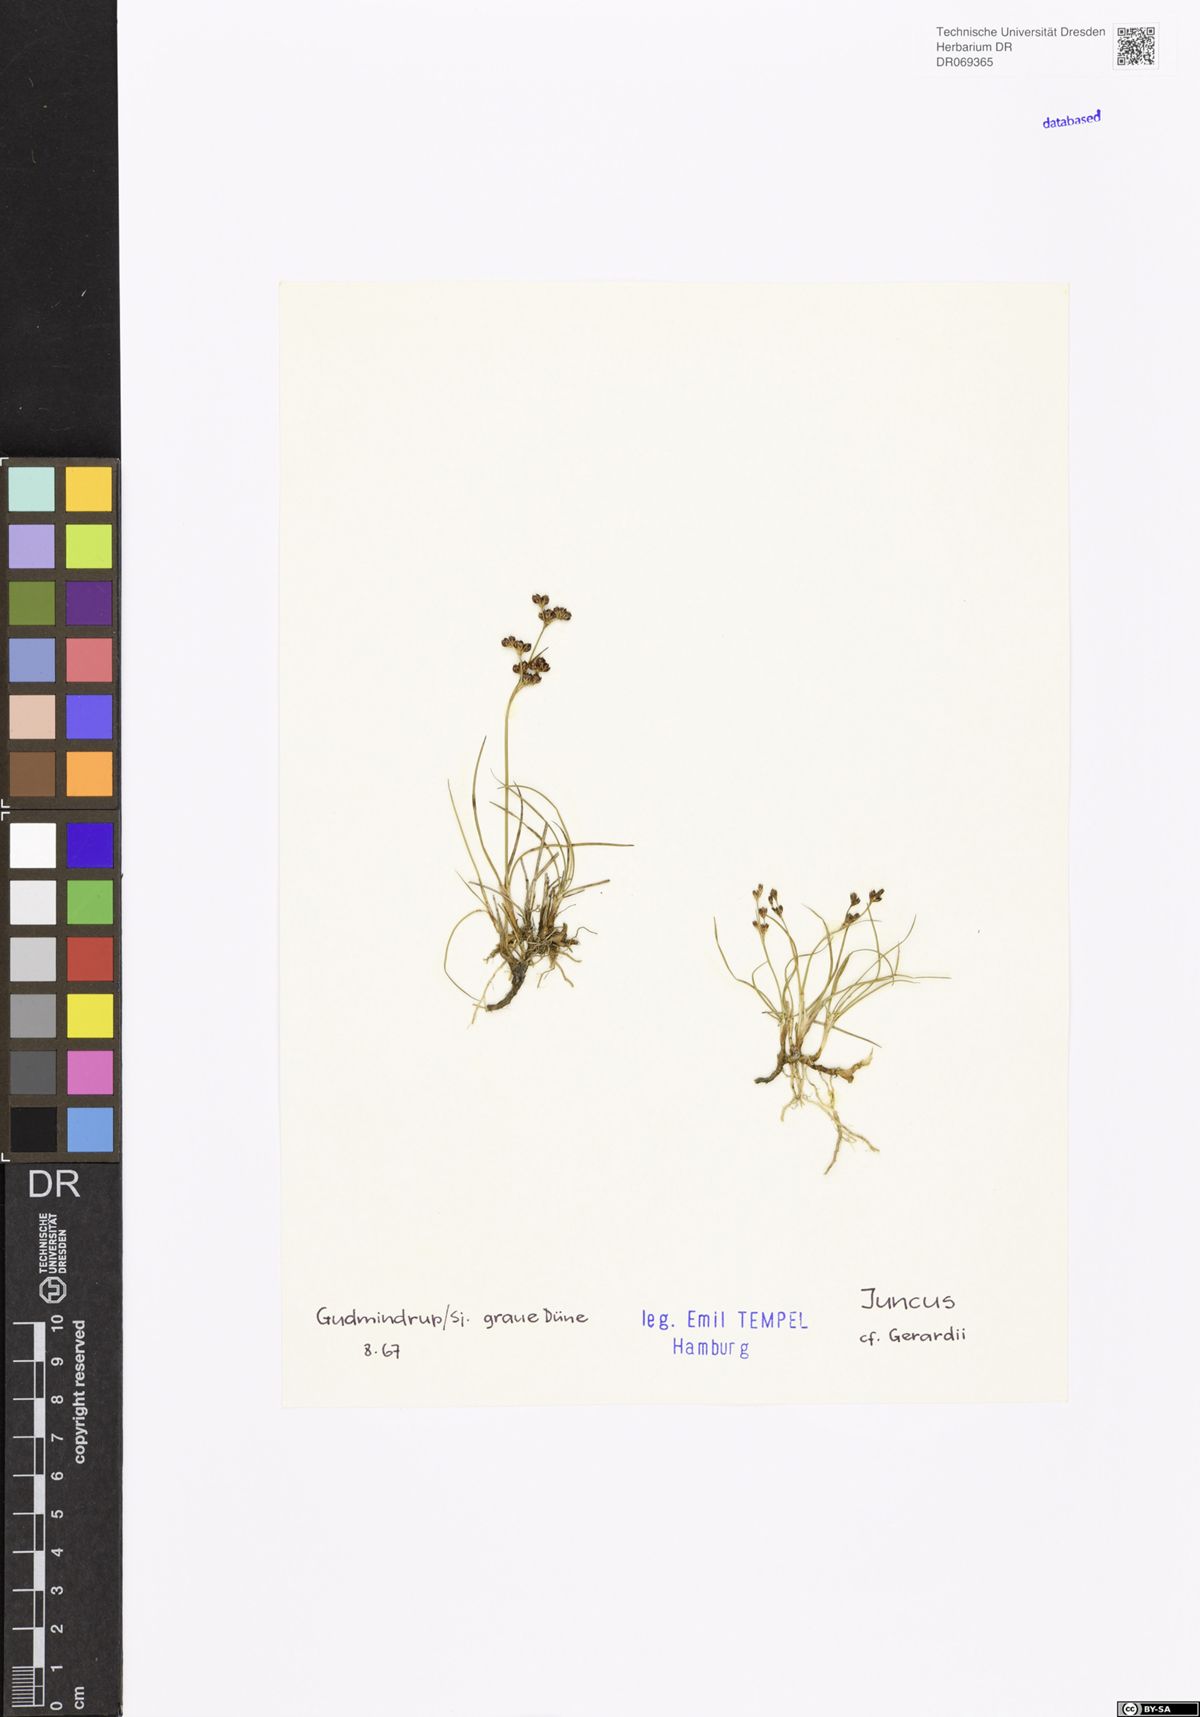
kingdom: Plantae
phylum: Tracheophyta
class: Liliopsida
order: Poales
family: Juncaceae
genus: Juncus
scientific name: Juncus gerardi
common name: Saltmarsh rush
